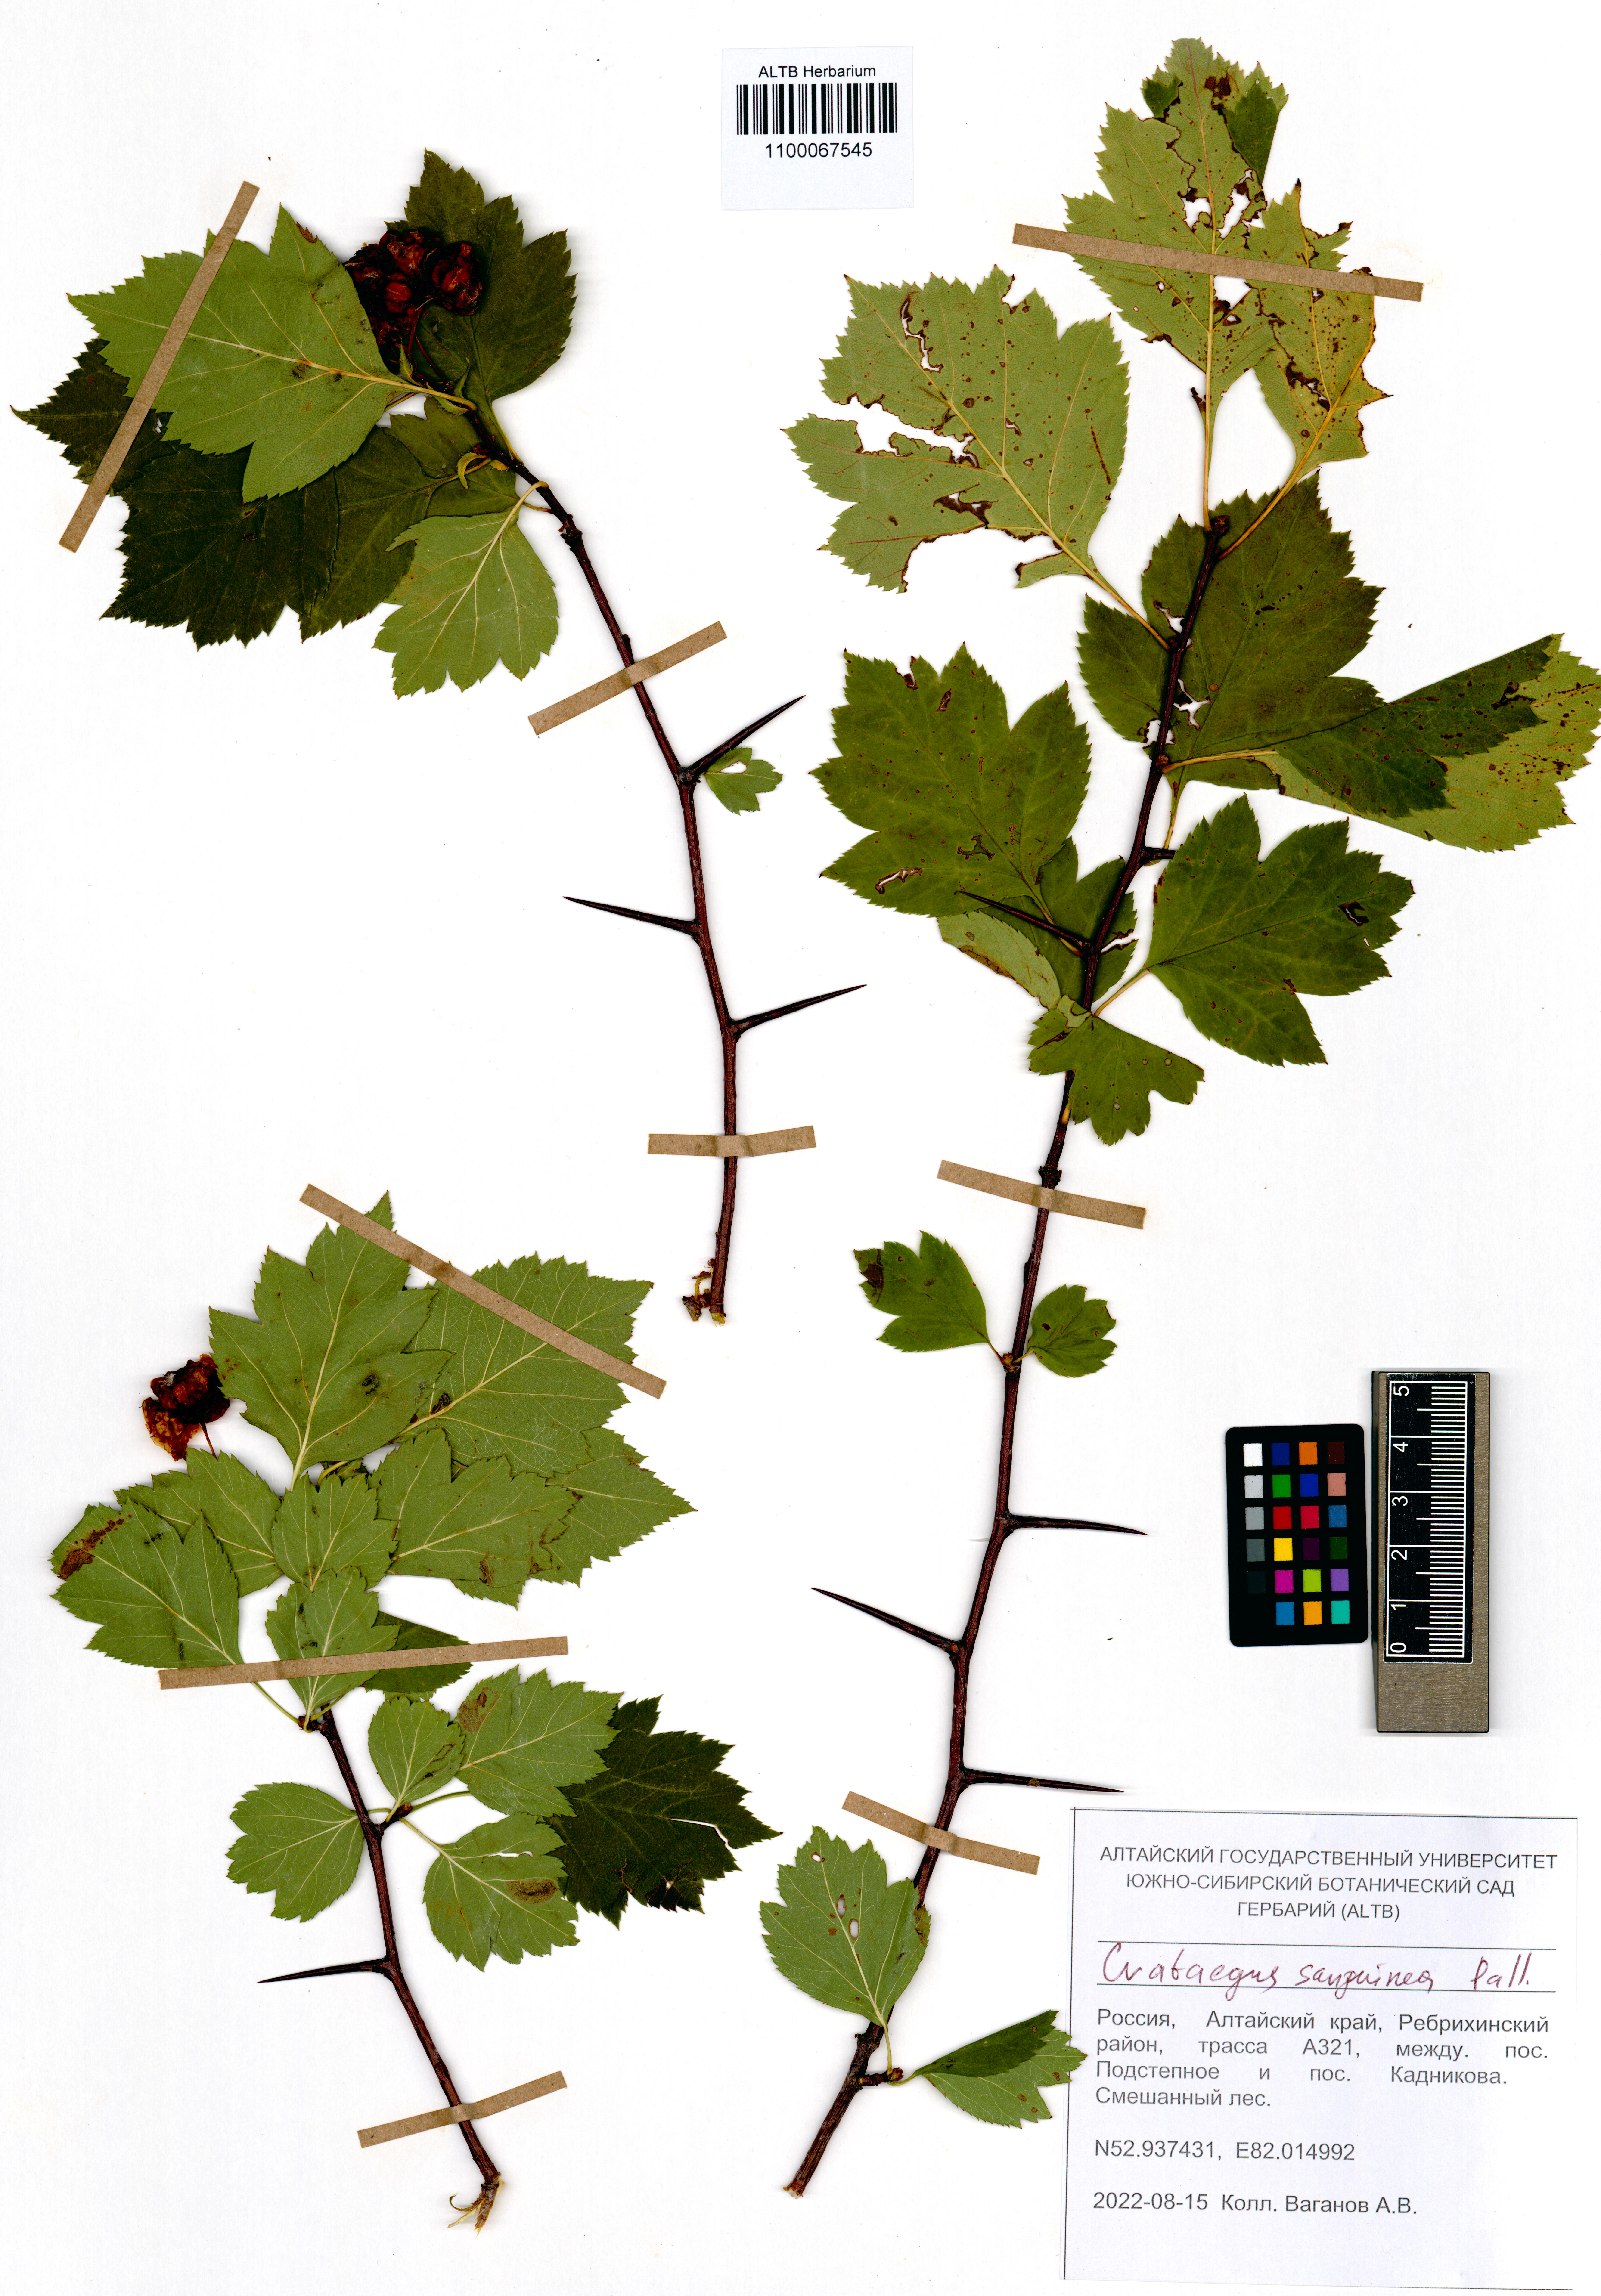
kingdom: Plantae
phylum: Tracheophyta
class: Magnoliopsida
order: Rosales
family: Rosaceae
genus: Crataegus
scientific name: Crataegus sanguinea
